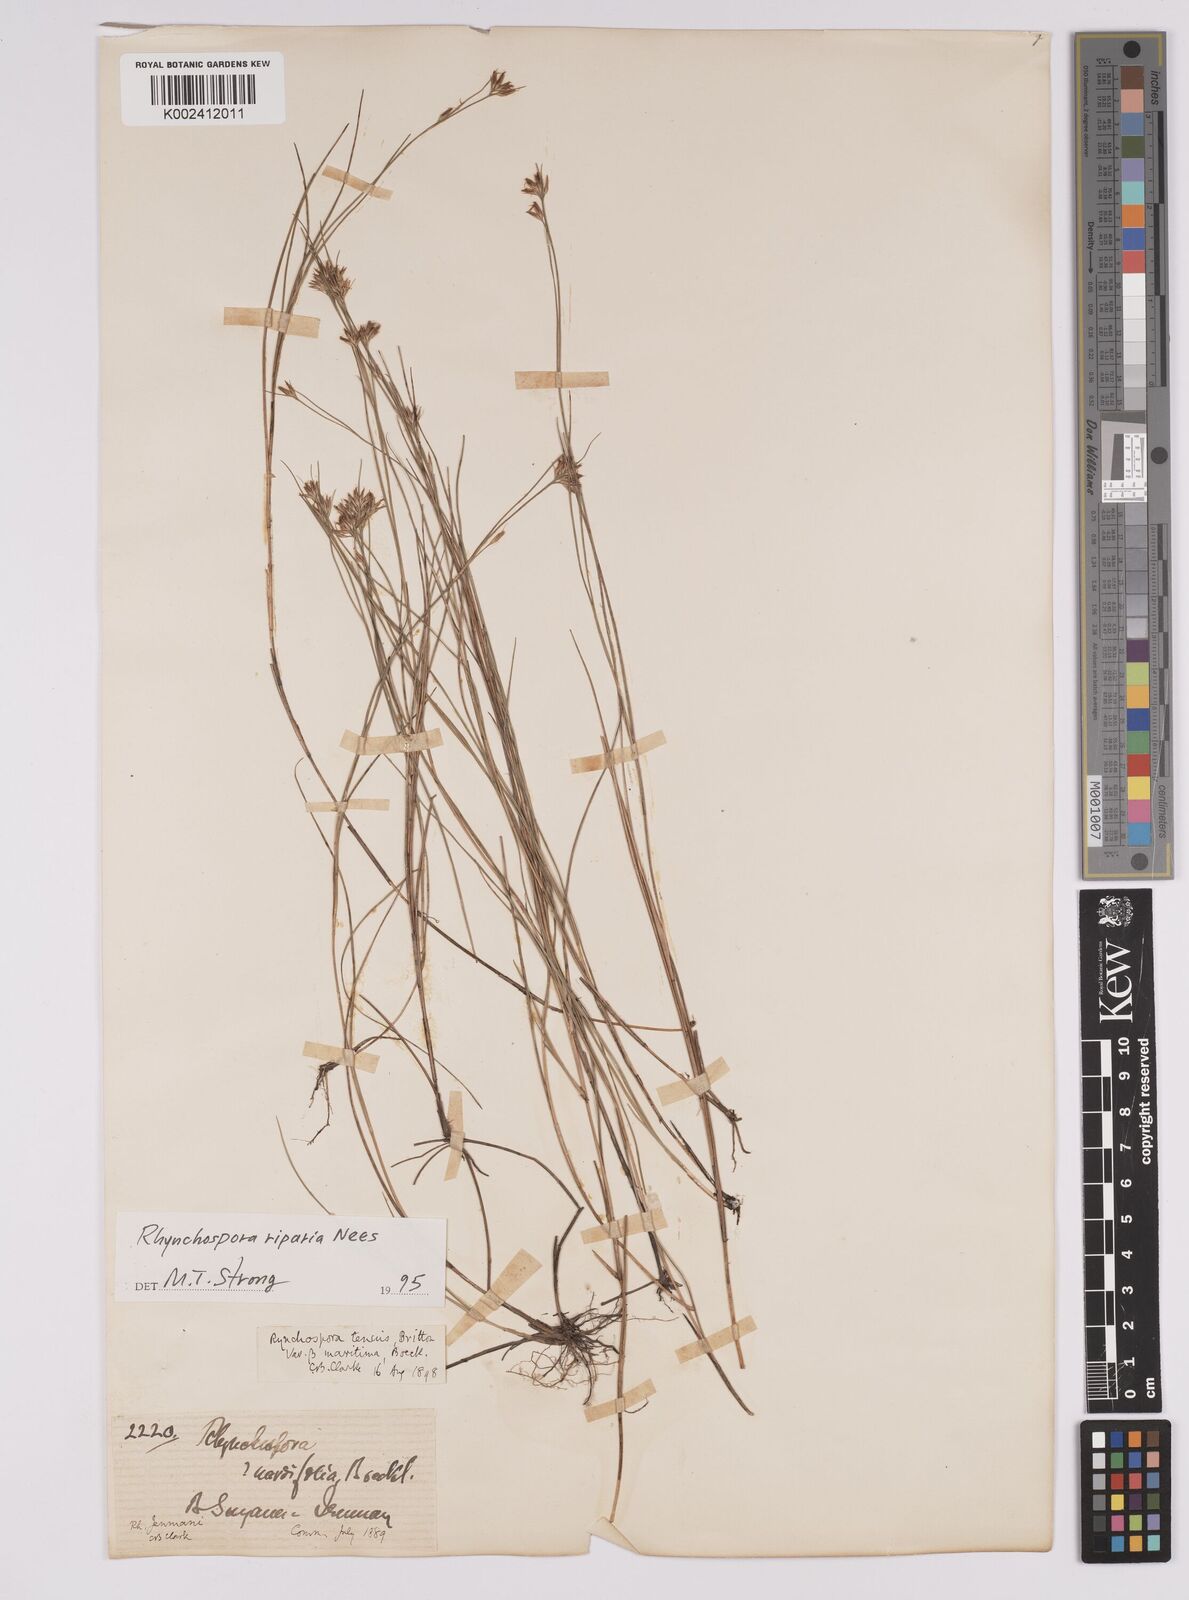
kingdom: Plantae
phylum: Tracheophyta
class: Liliopsida
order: Poales
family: Cyperaceae
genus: Rhynchospora
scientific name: Rhynchospora riparia
